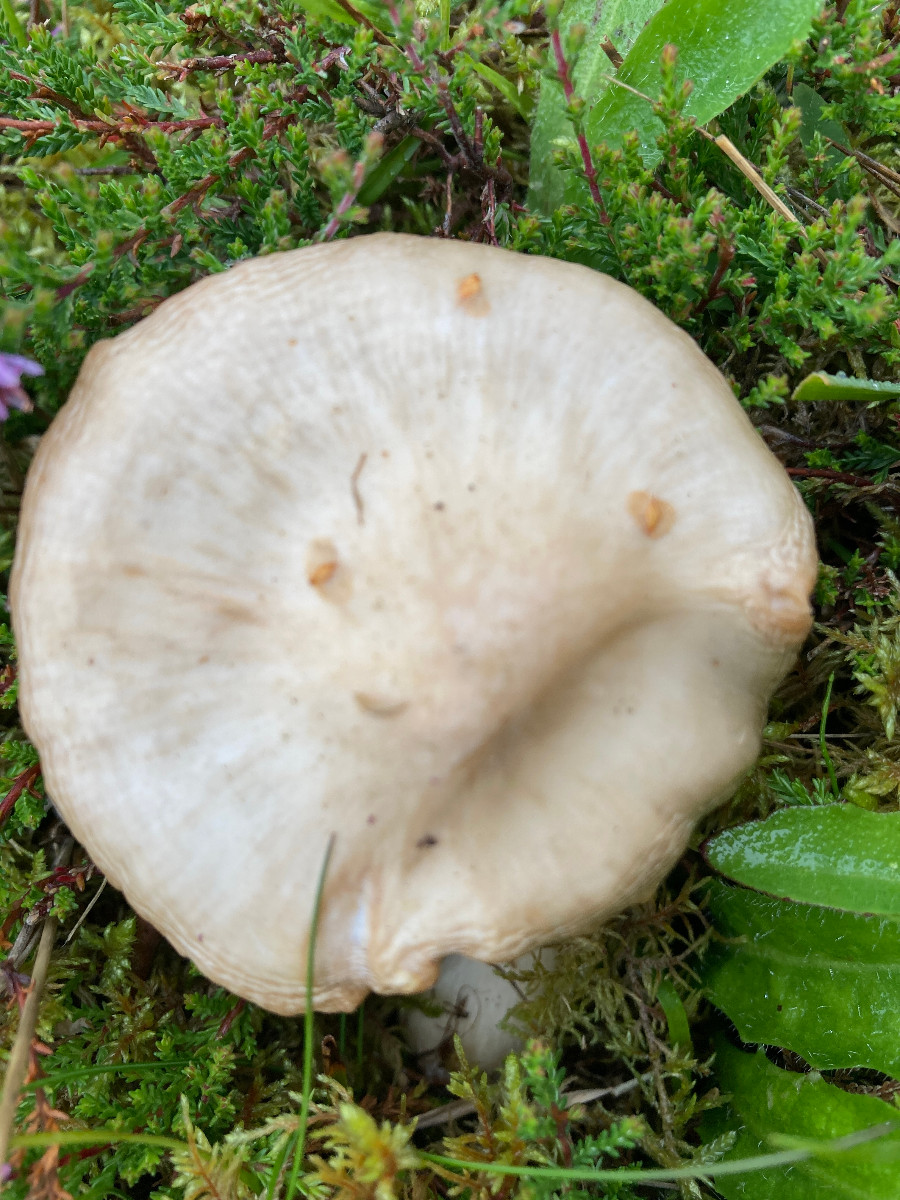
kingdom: Fungi
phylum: Basidiomycota
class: Agaricomycetes
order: Agaricales
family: Entolomataceae
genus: Entoloma
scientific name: Entoloma prunuloides
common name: mel-rødblad
